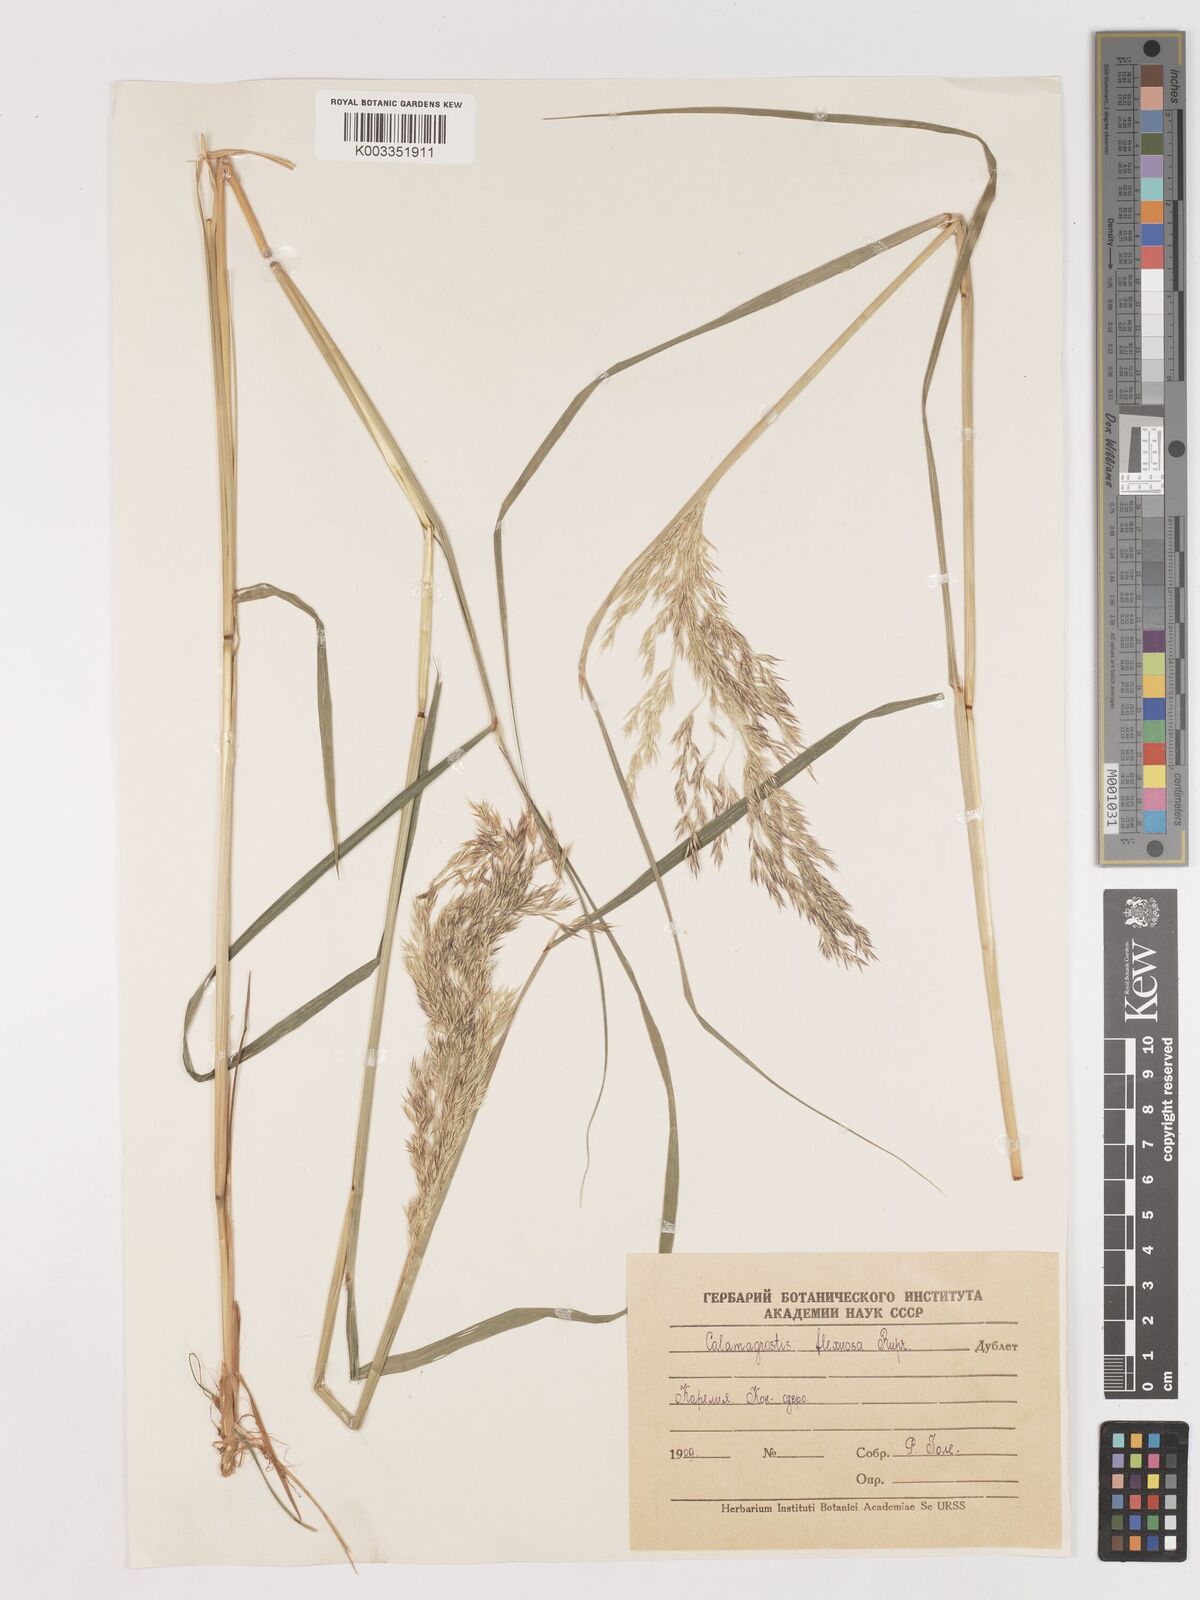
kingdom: Plantae
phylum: Tracheophyta
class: Liliopsida
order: Poales
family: Poaceae
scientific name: Poaceae
